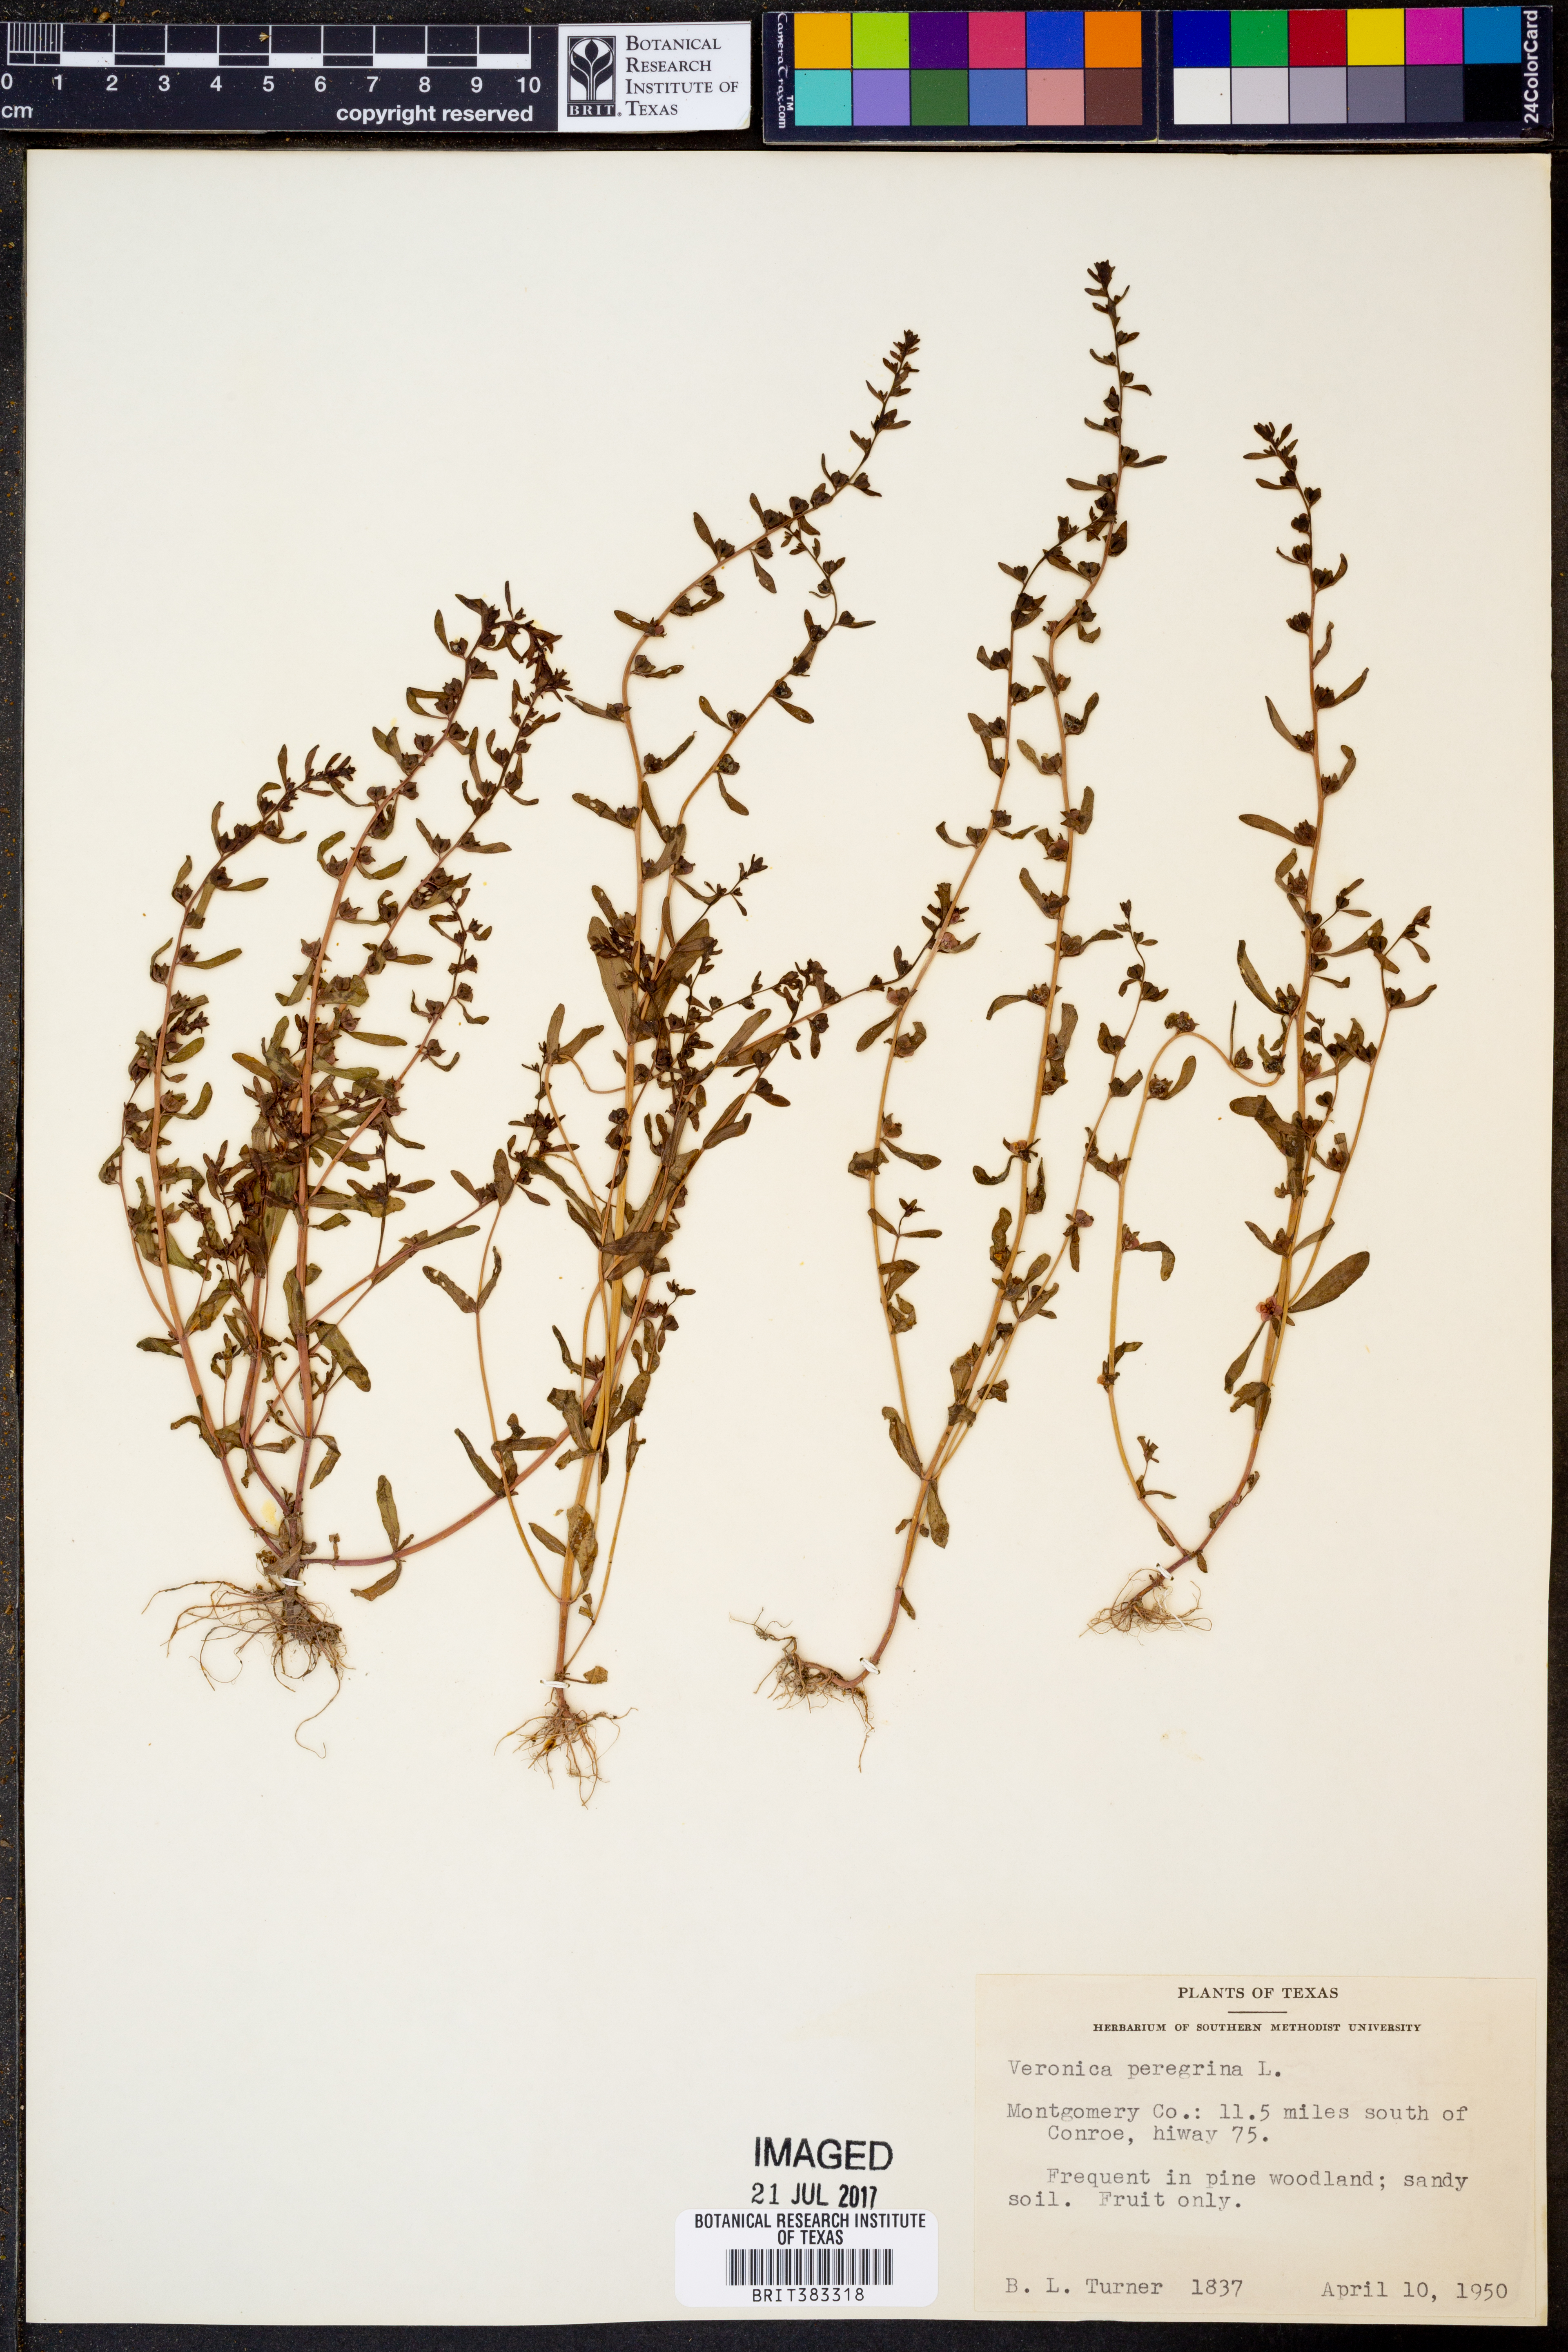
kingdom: Plantae
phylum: Tracheophyta
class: Magnoliopsida
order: Lamiales
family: Plantaginaceae
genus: Veronica
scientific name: Veronica peregrina
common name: Neckweed
